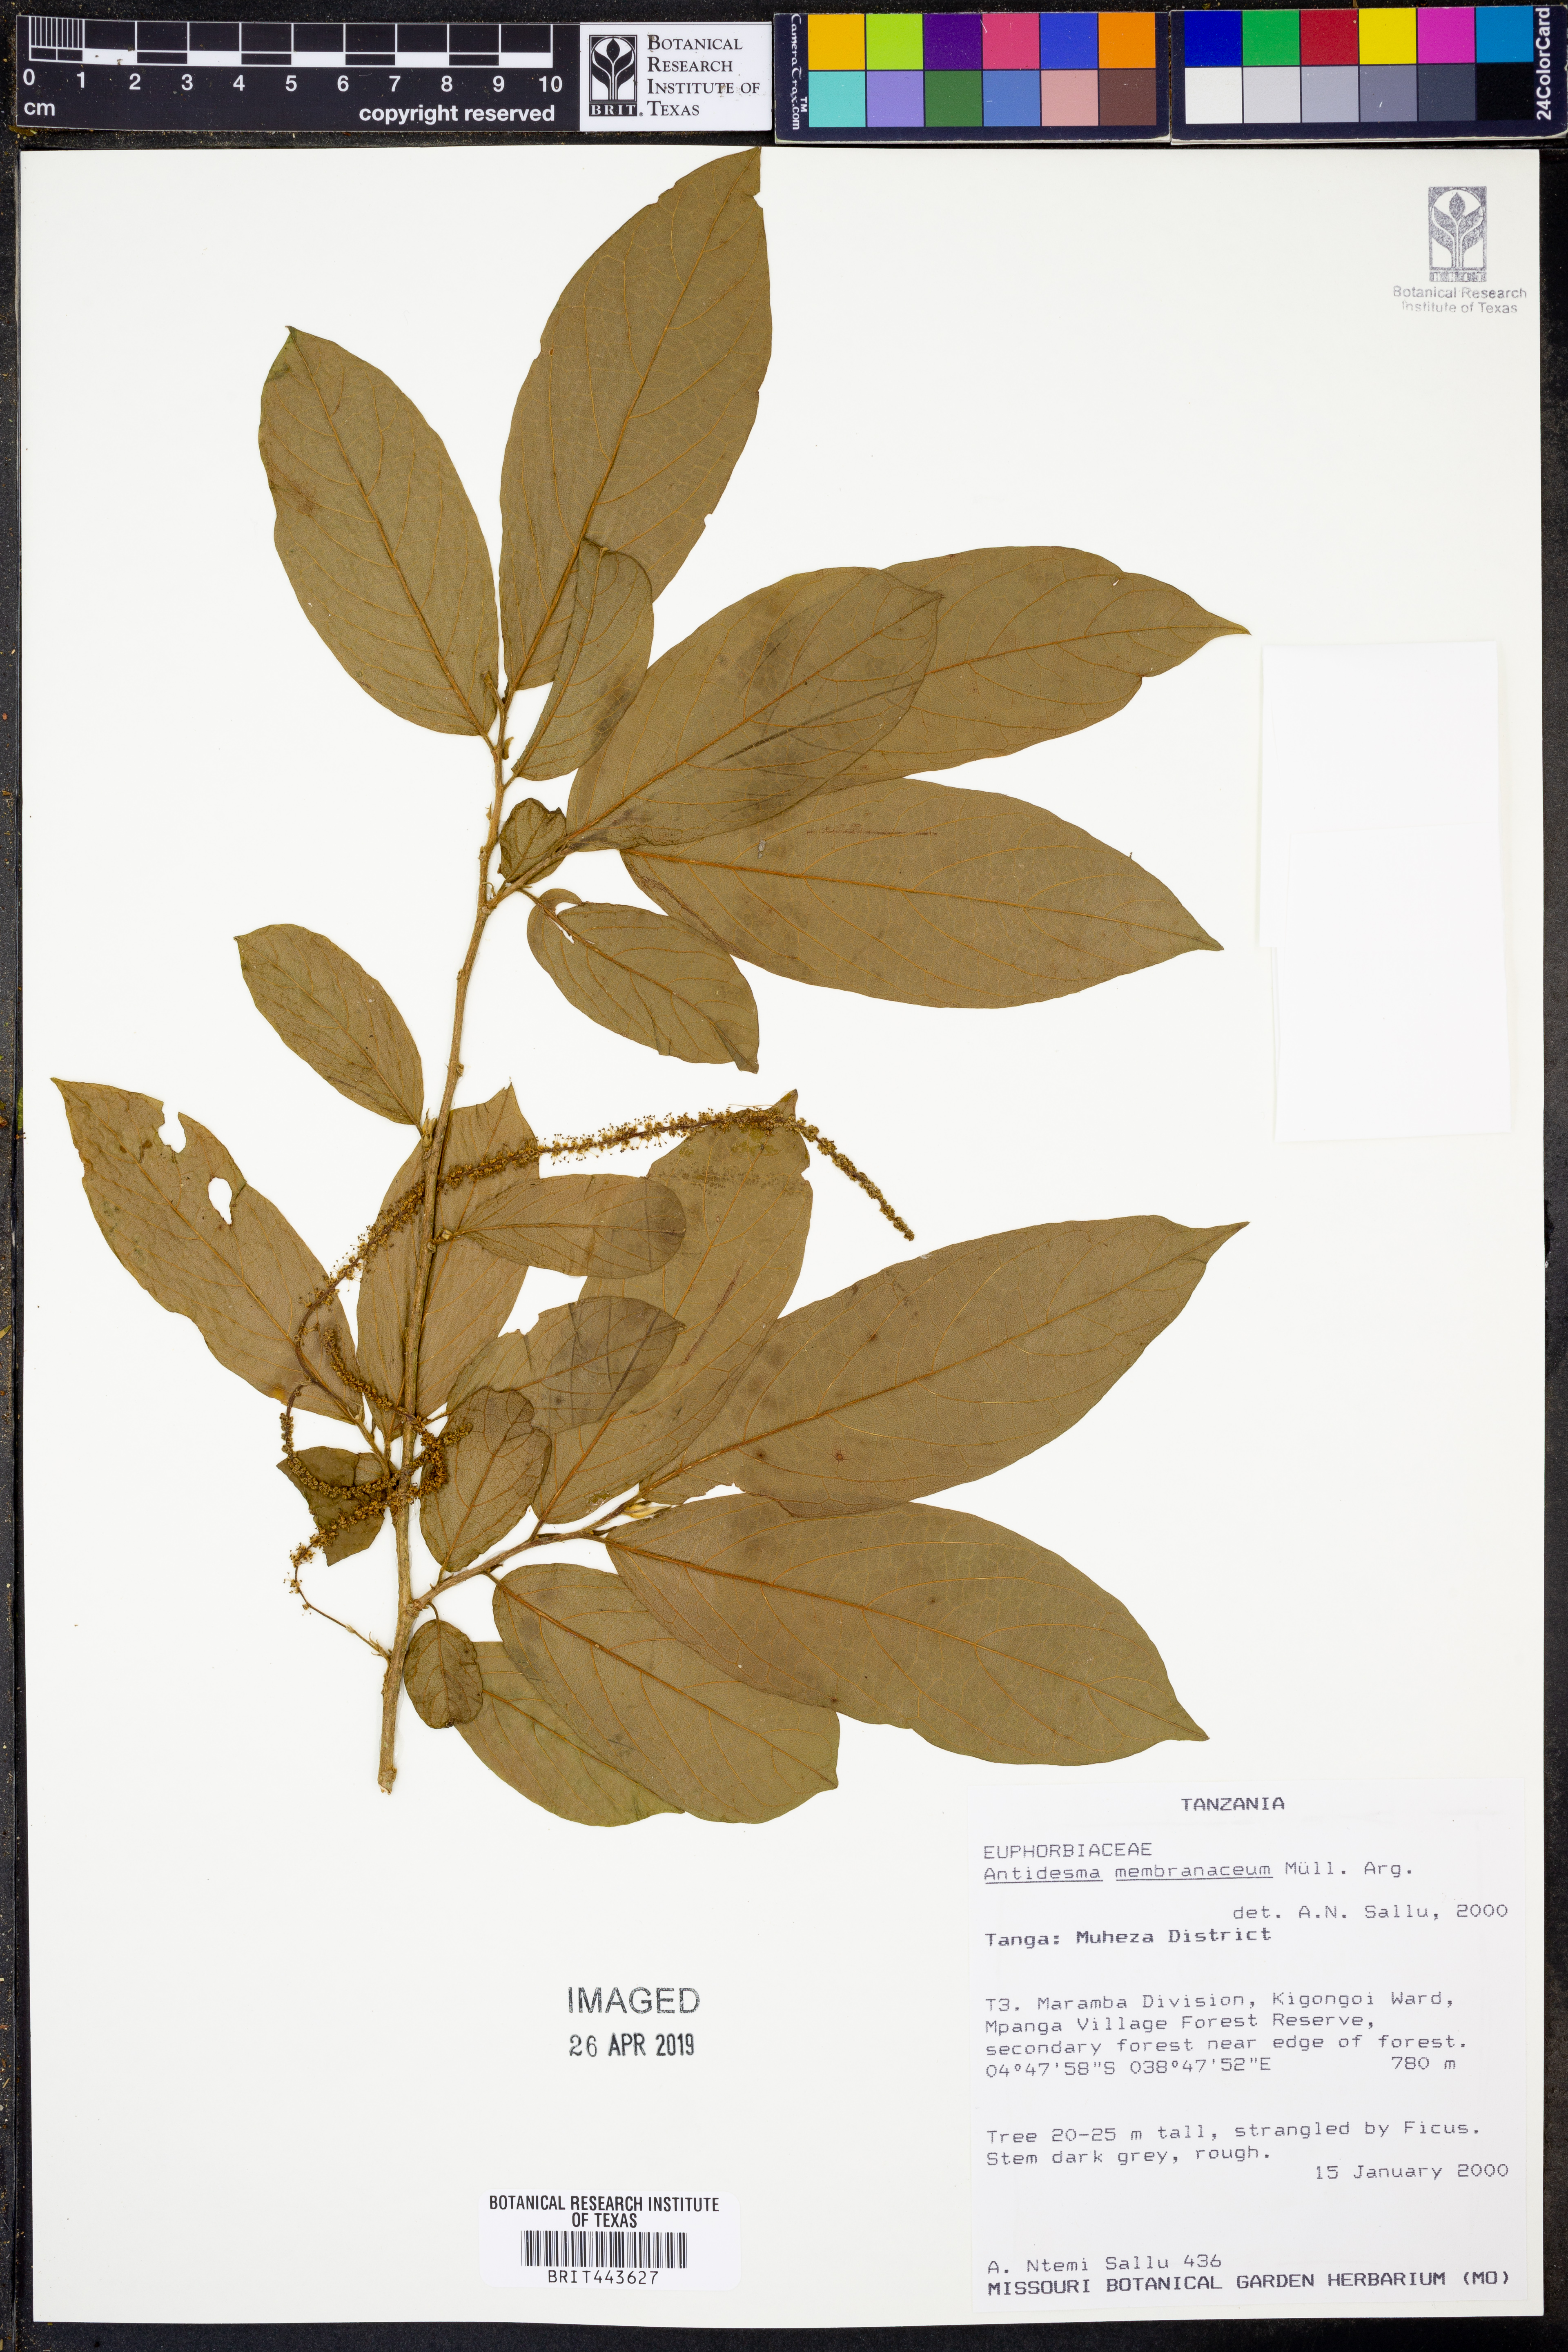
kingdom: Plantae
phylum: Tracheophyta
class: Magnoliopsida
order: Malpighiales
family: Phyllanthaceae
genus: Antidesma
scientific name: Antidesma membranaceum
